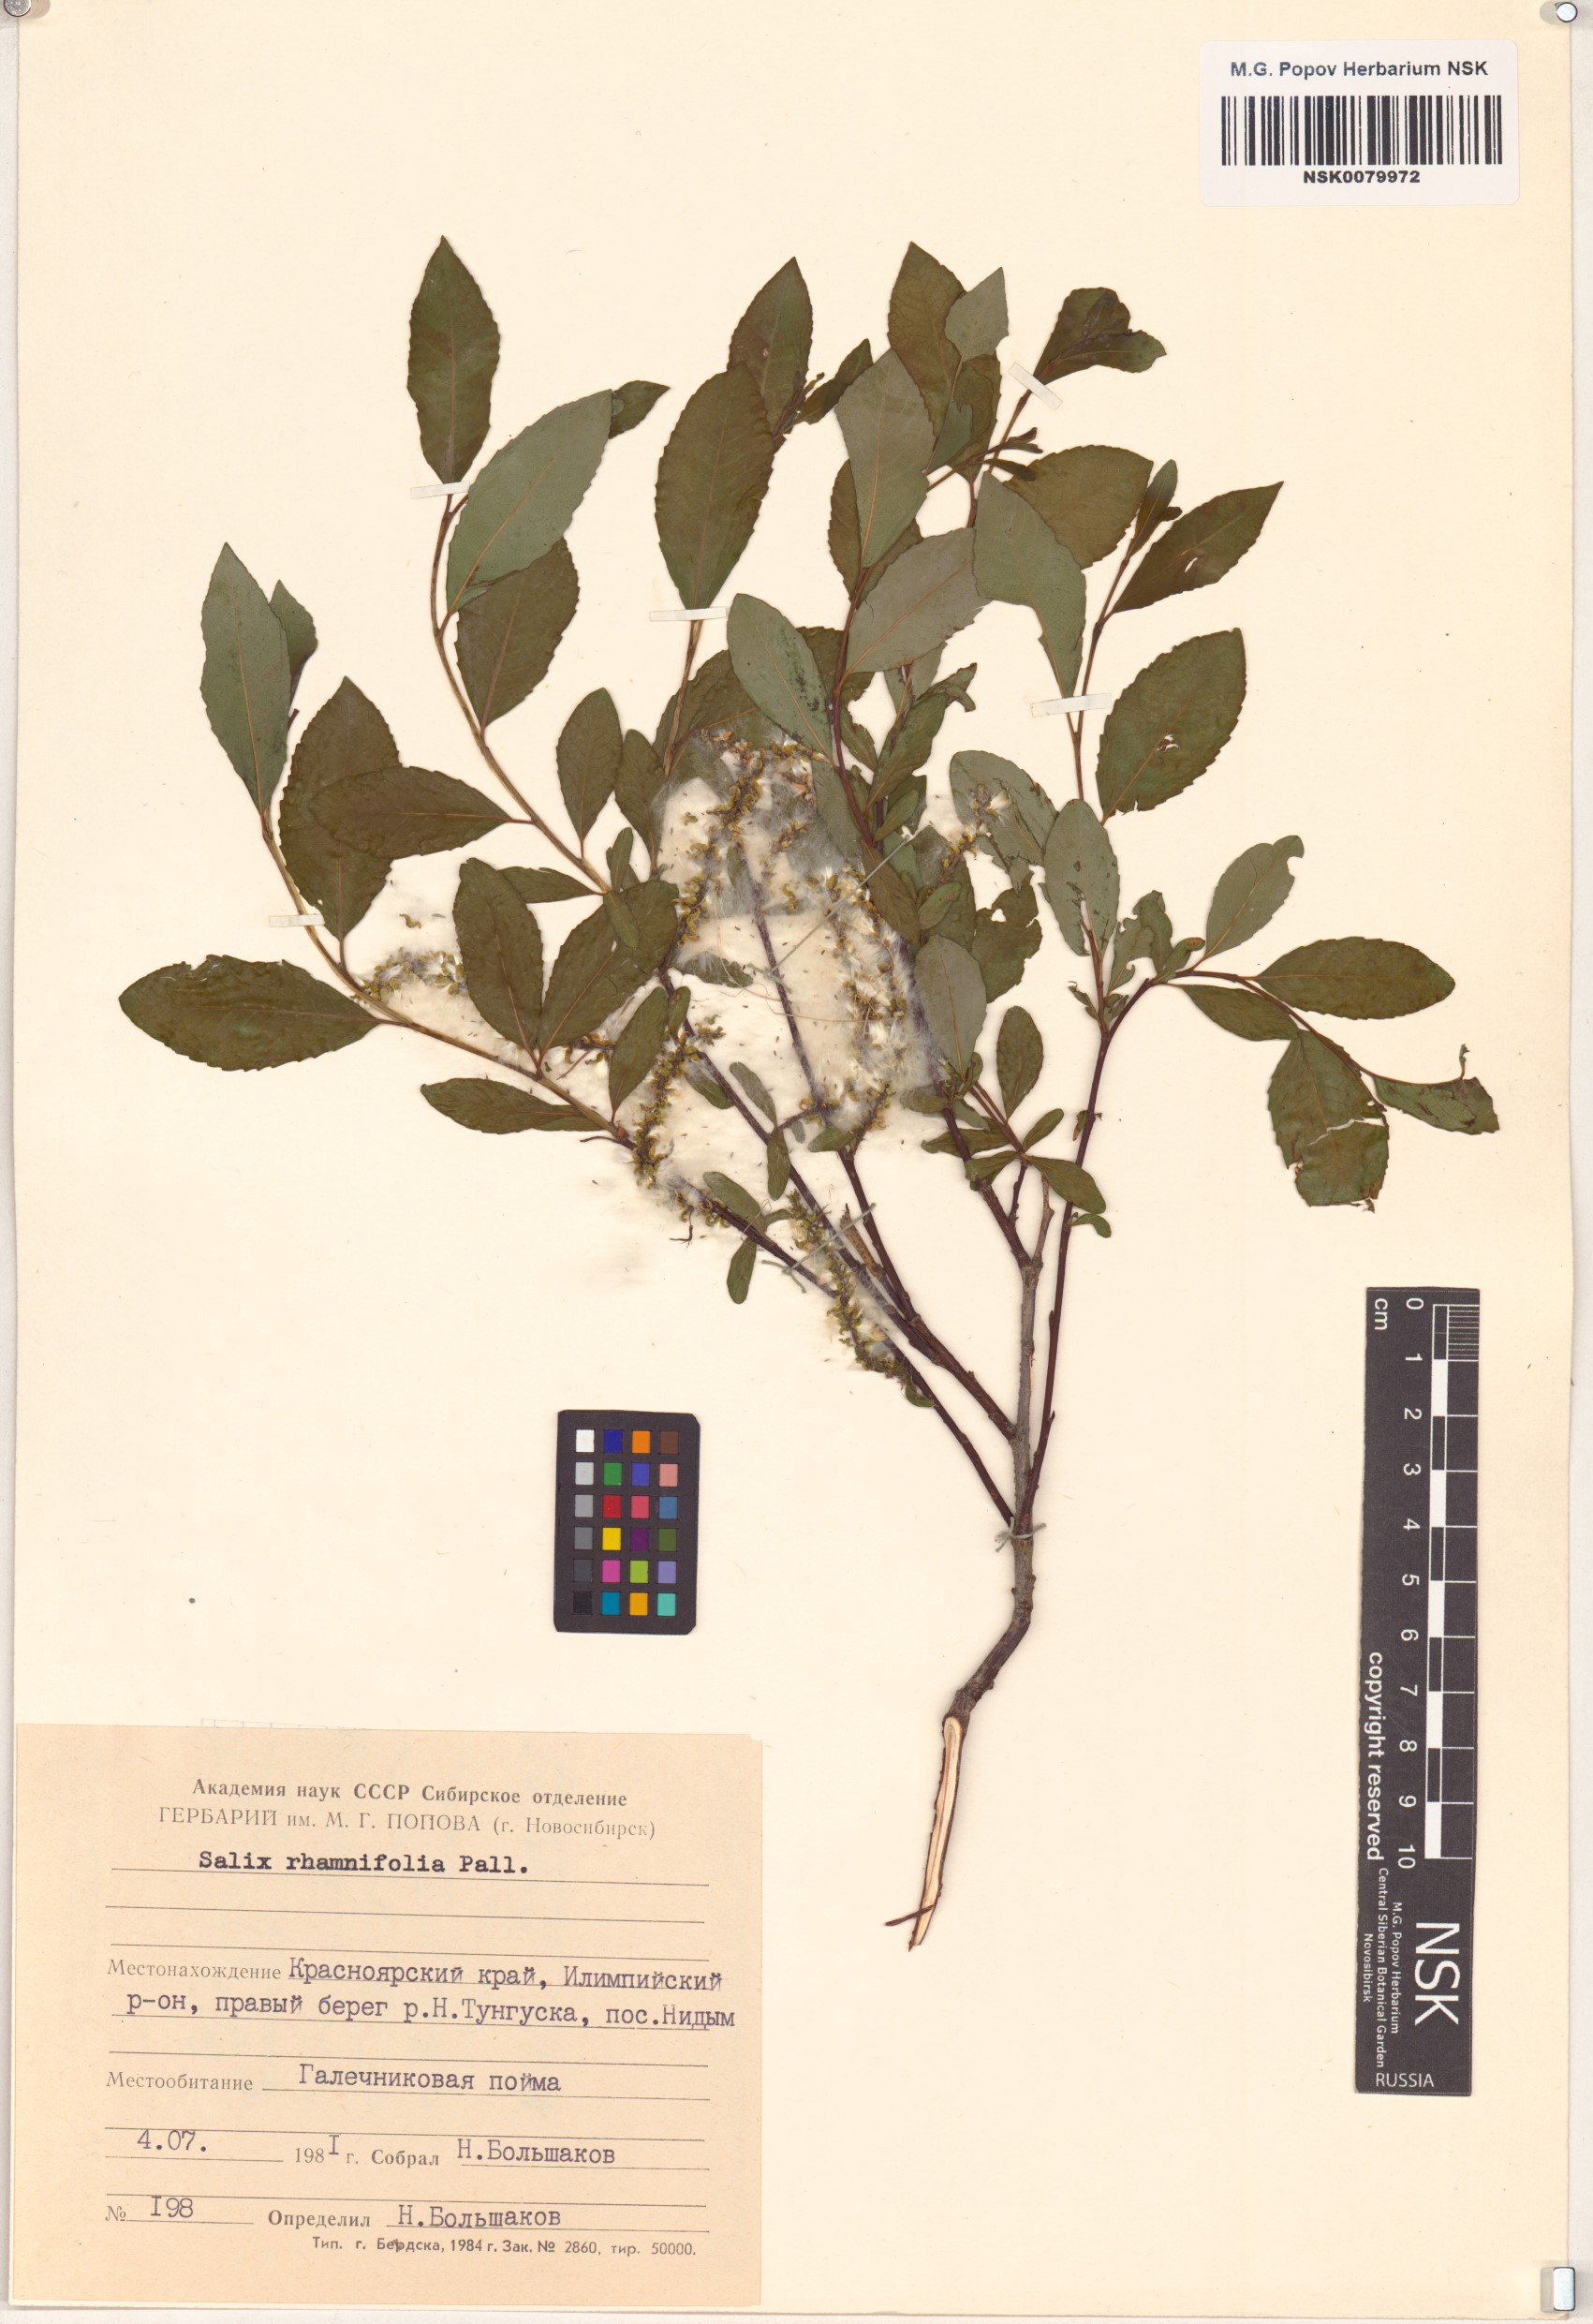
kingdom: Plantae
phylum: Tracheophyta
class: Magnoliopsida
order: Malpighiales
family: Salicaceae
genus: Salix
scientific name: Salix rhamnifolia
